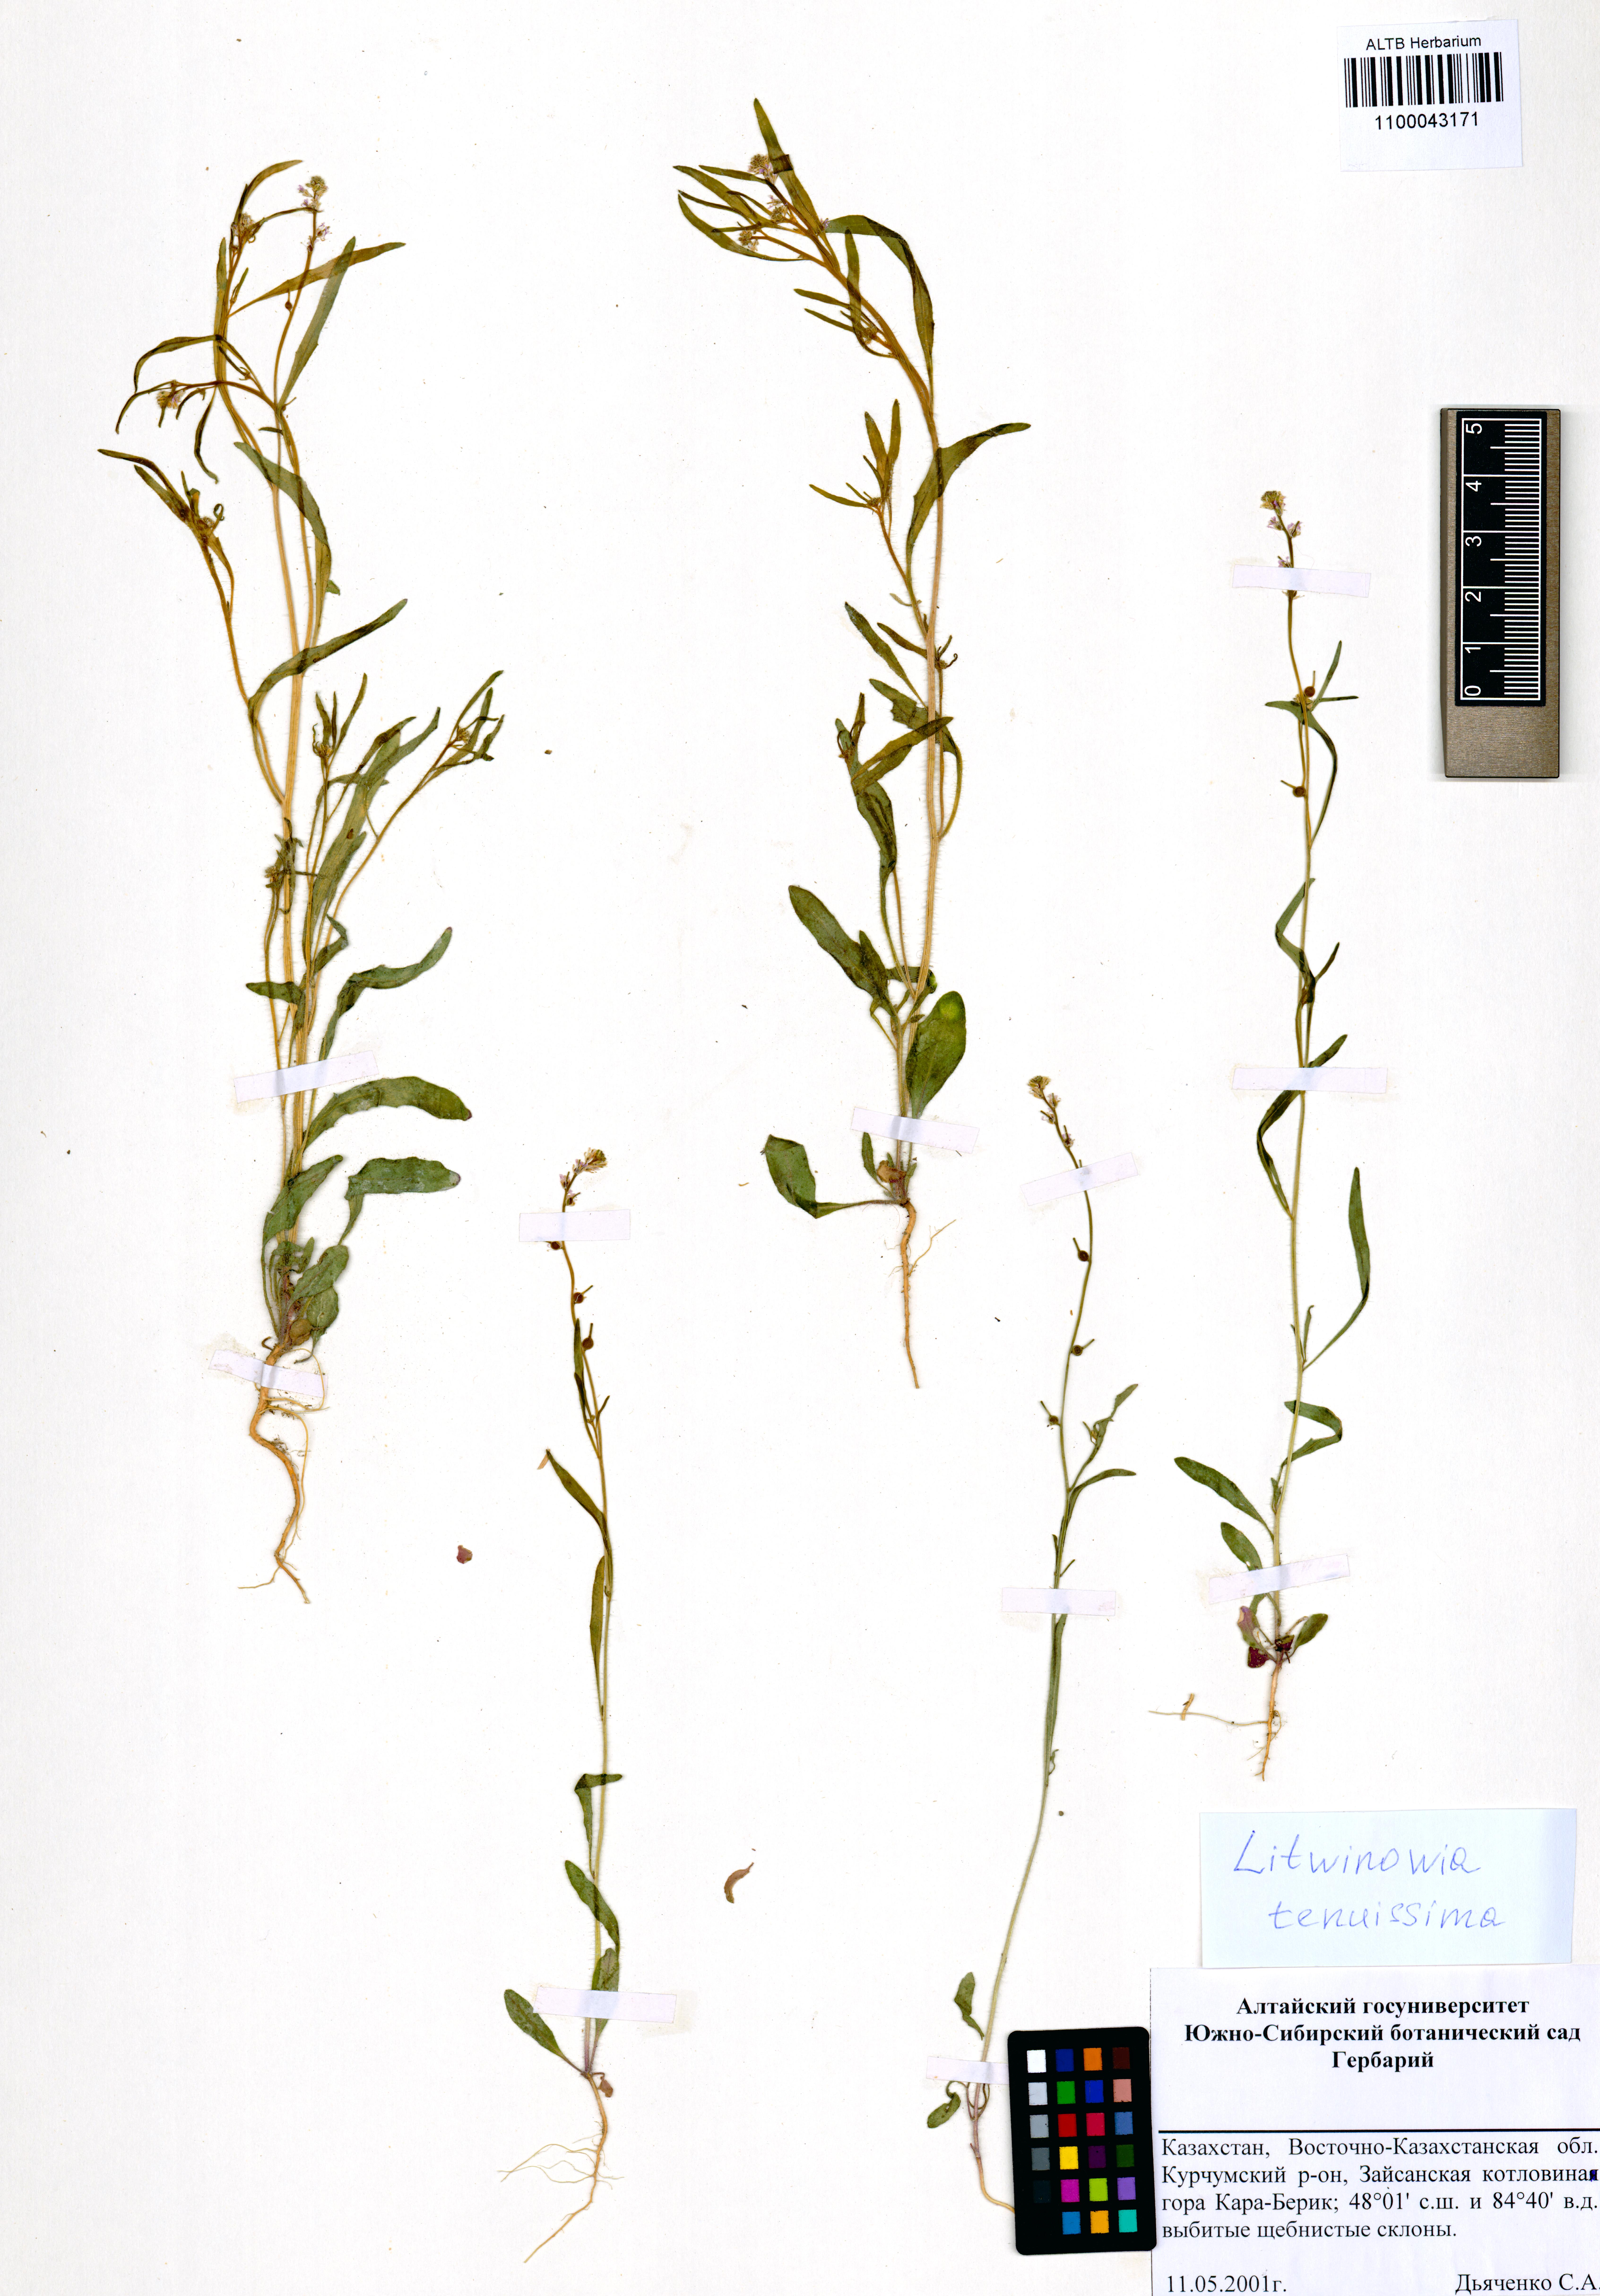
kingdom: Plantae
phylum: Tracheophyta
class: Magnoliopsida
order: Brassicales
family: Brassicaceae
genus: Litwinowia
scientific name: Litwinowia tenuissima
